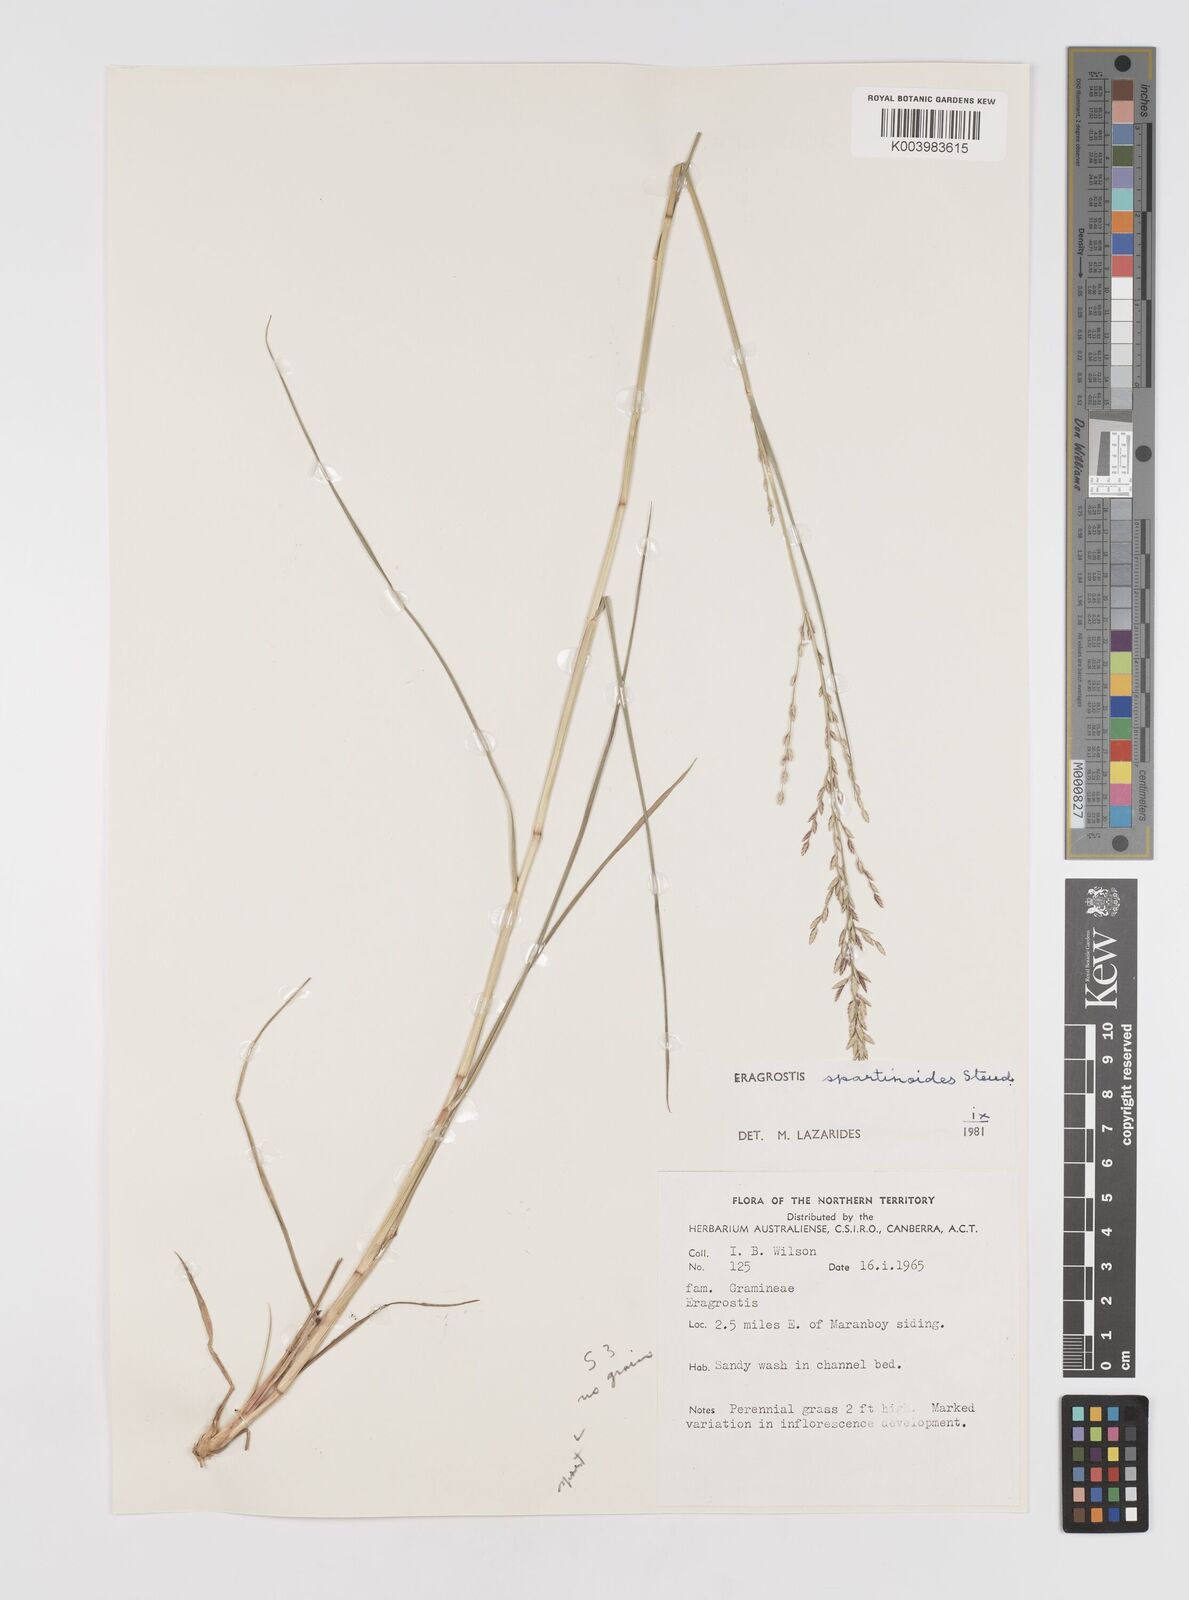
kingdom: Plantae
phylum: Tracheophyta
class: Liliopsida
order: Poales
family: Poaceae
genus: Eragrostis
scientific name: Eragrostis speciosa
